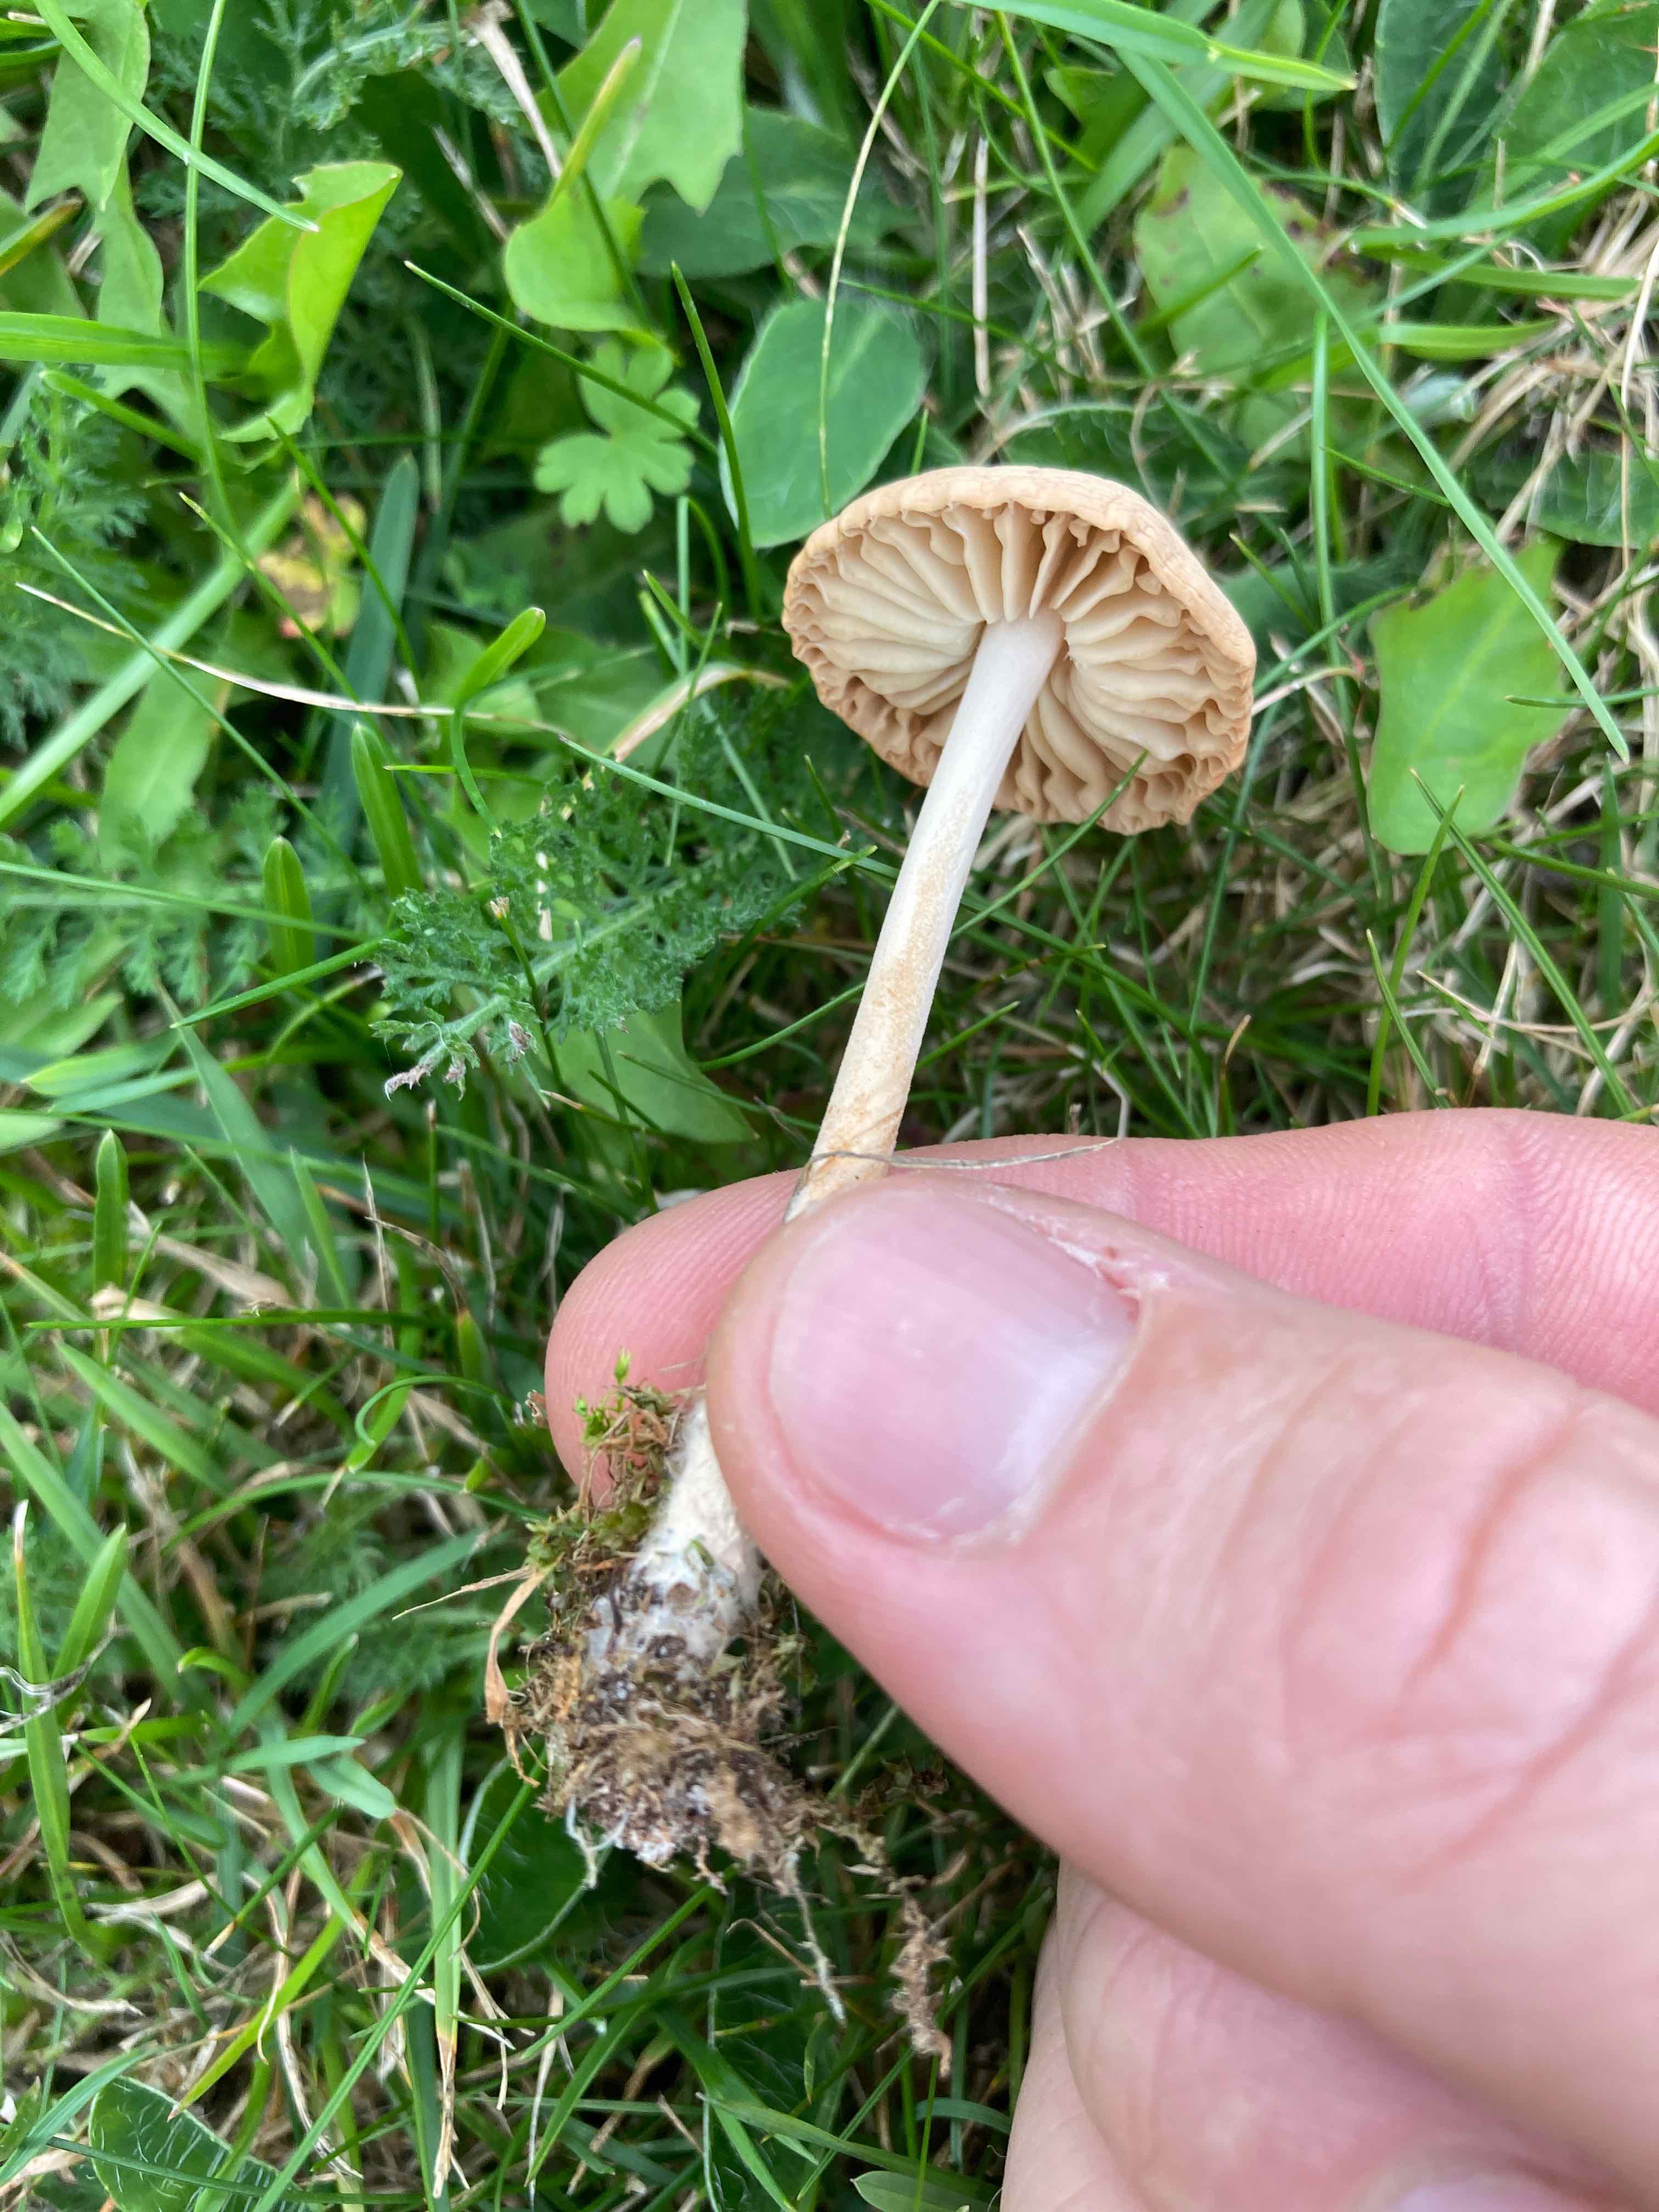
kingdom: Fungi
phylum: Basidiomycota
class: Agaricomycetes
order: Agaricales
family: Marasmiaceae
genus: Marasmius
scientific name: Marasmius oreades
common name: elledans-bruskhat
